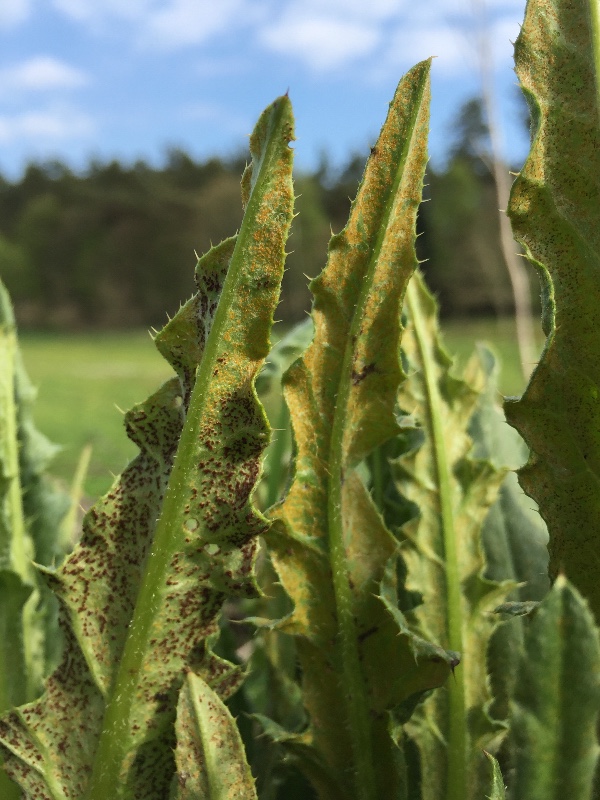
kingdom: Fungi
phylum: Basidiomycota
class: Pucciniomycetes
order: Pucciniales
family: Pucciniaceae
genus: Puccinia
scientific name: Puccinia suaveolens
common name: tidsel-tvecellerust
